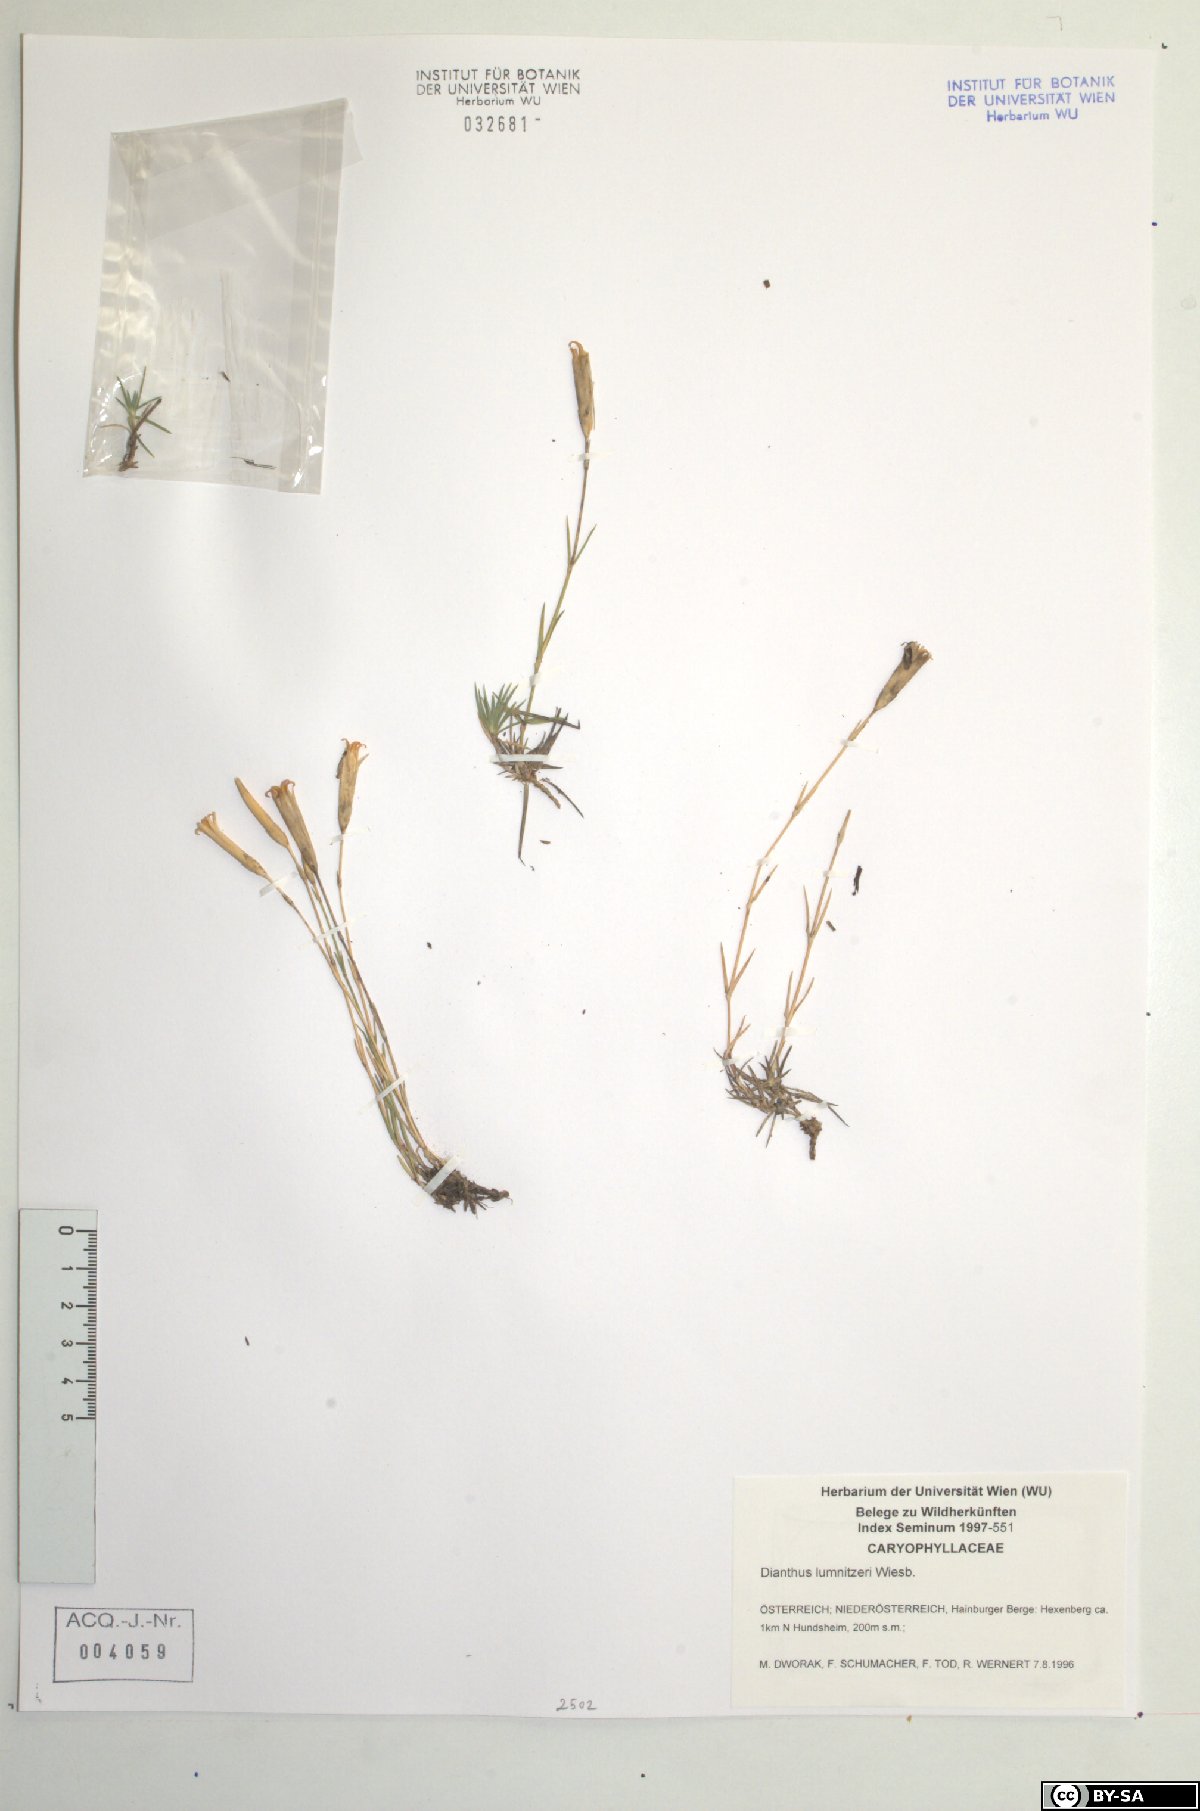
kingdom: Plantae
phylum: Tracheophyta
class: Magnoliopsida
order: Caryophyllales
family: Caryophyllaceae
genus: Dianthus
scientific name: Dianthus praecox
